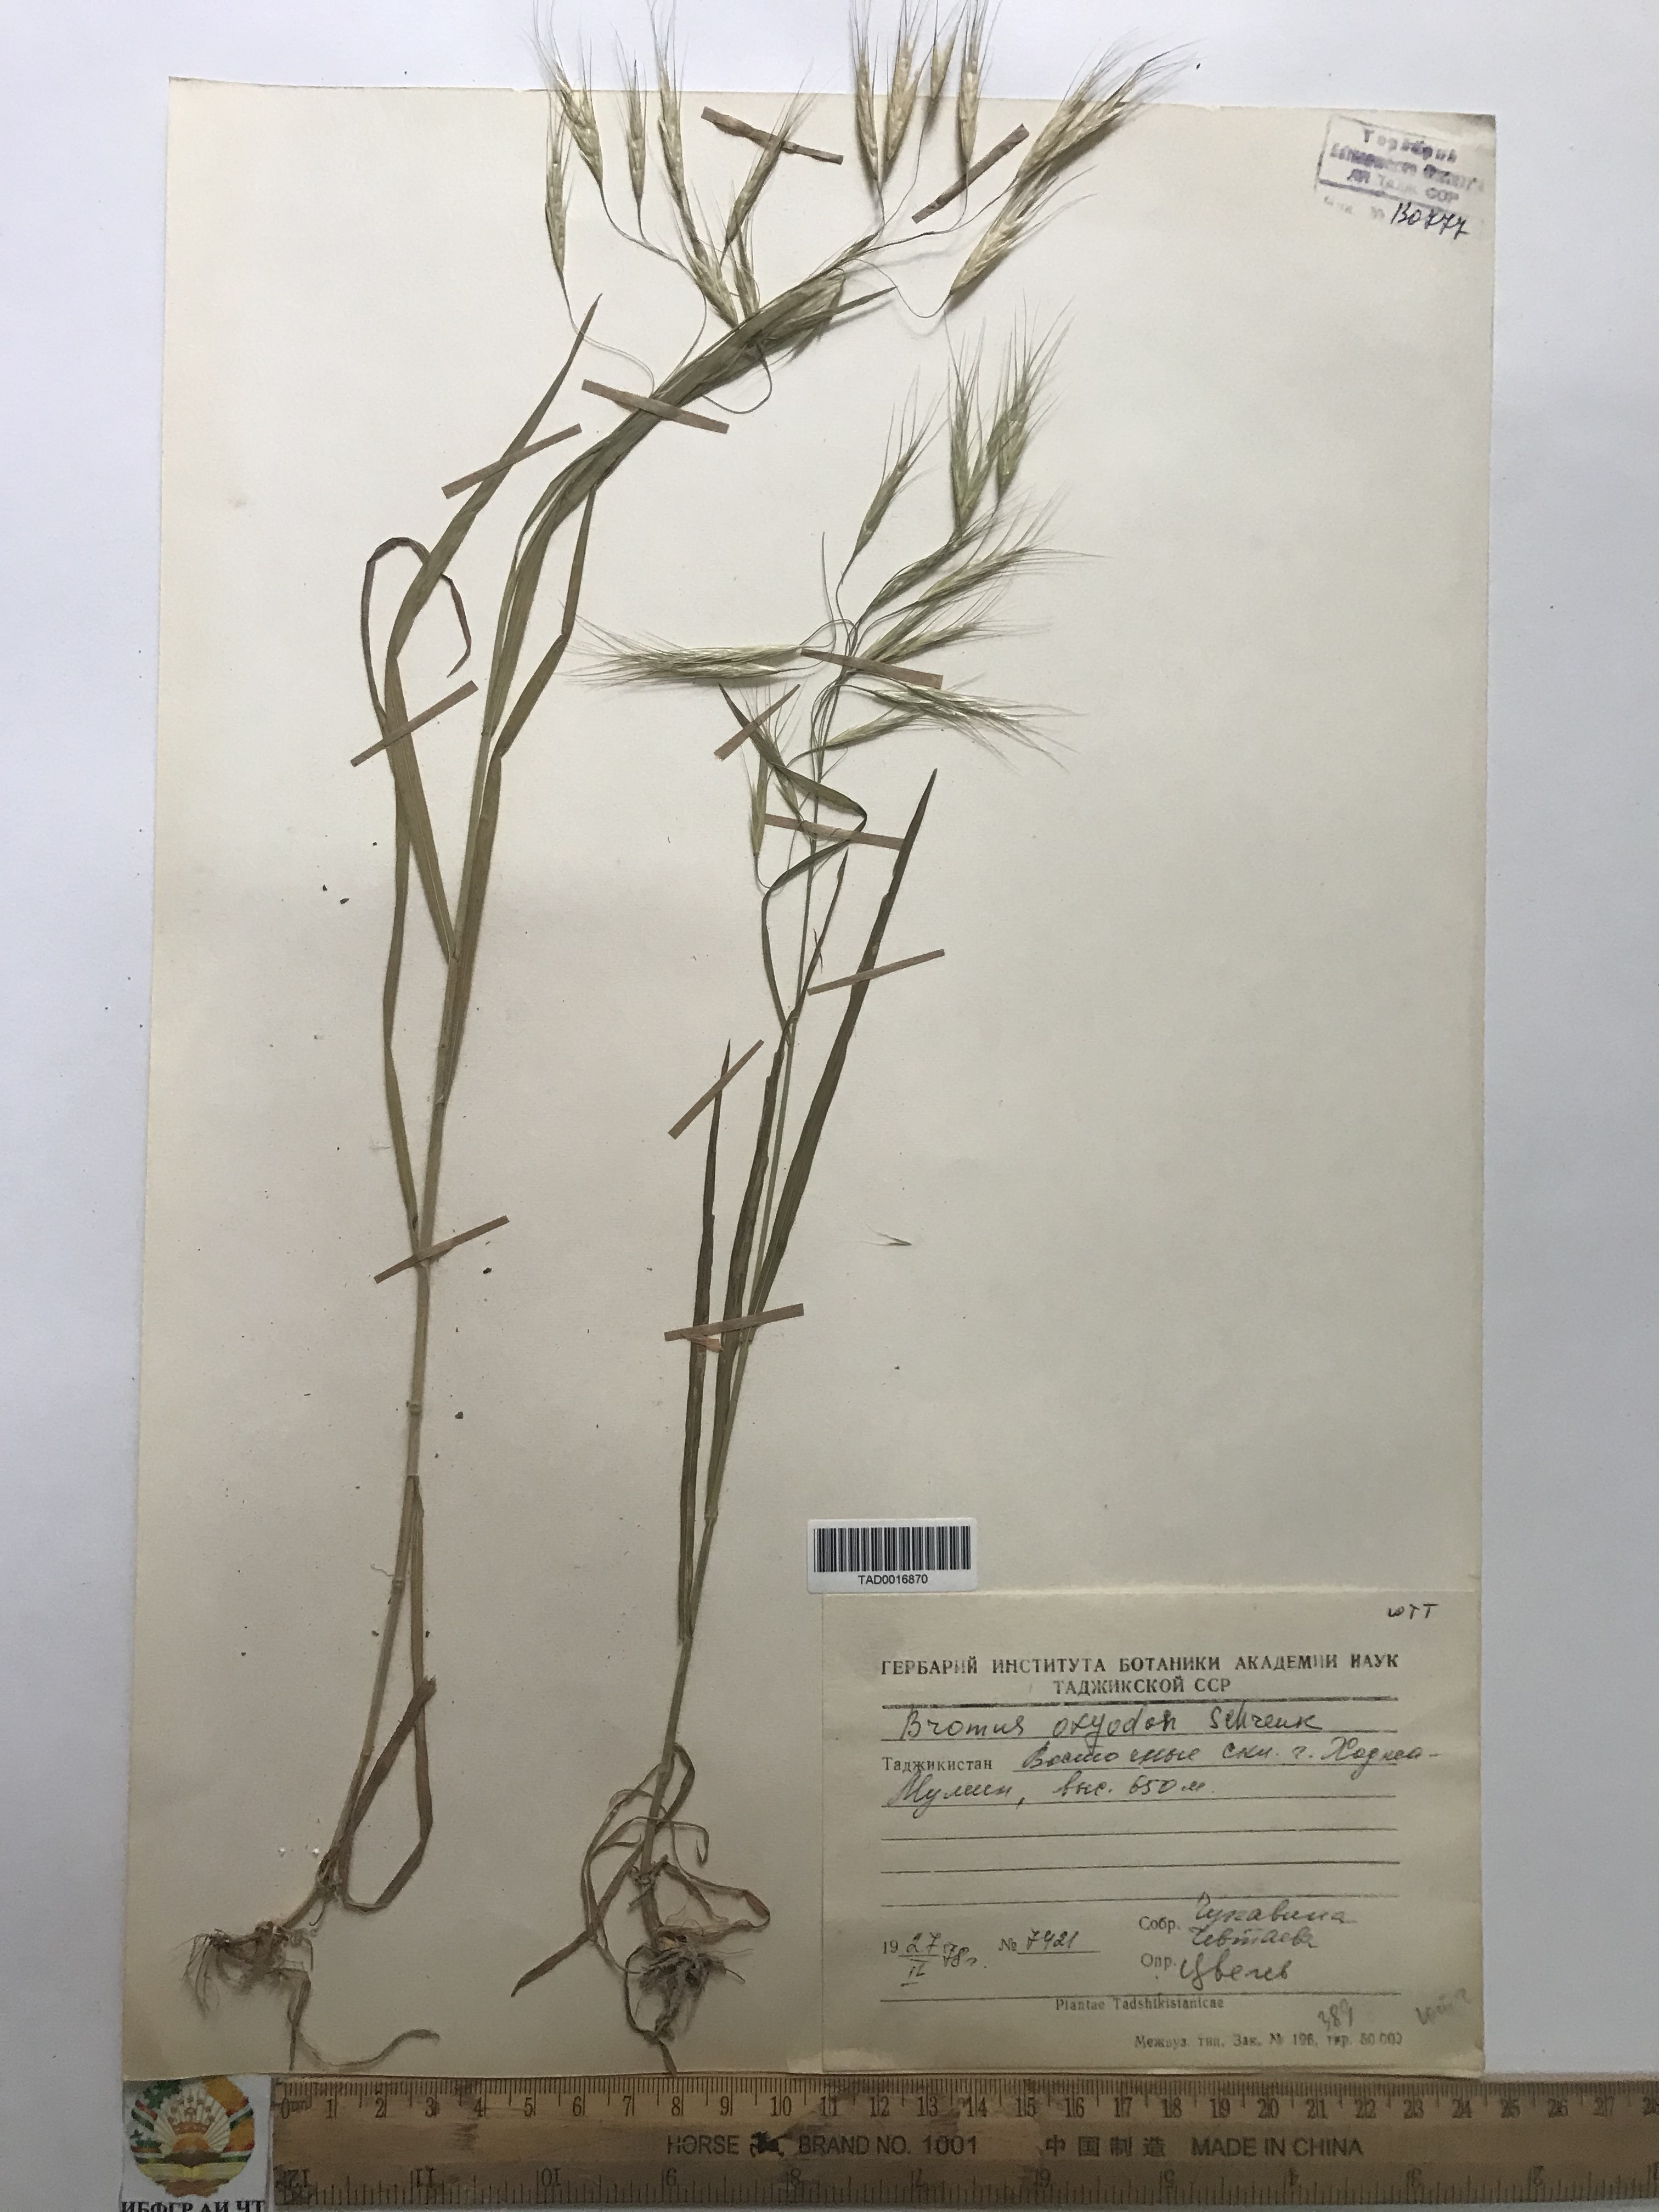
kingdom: Plantae
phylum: Tracheophyta
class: Liliopsida
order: Poales
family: Poaceae
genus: Bromus
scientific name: Bromus oxyodon
